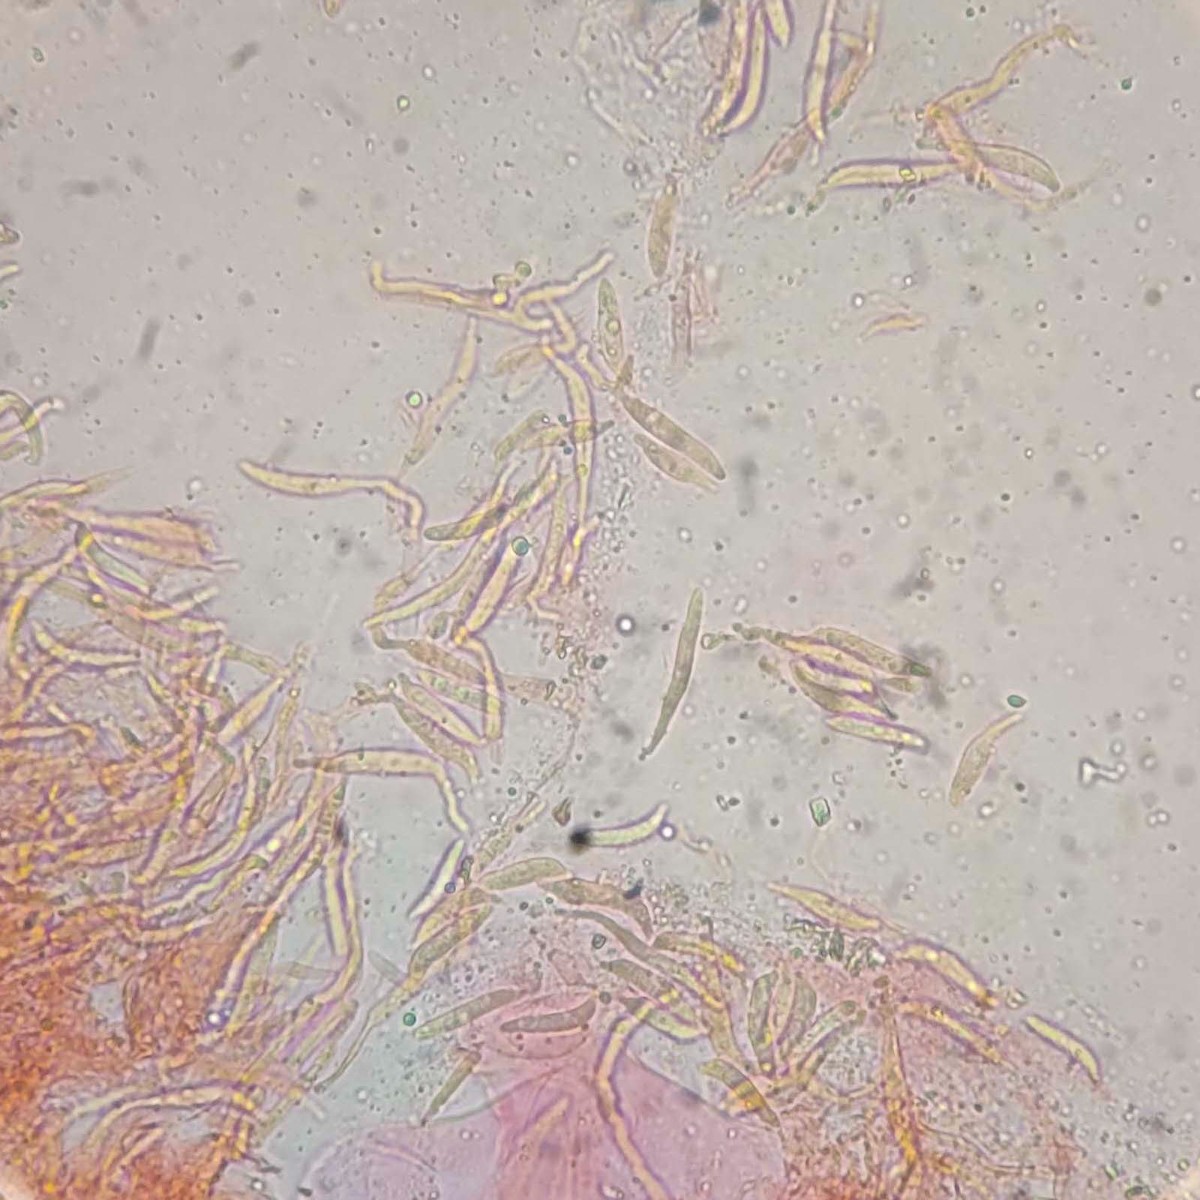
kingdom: Fungi
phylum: Basidiomycota
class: Exobasidiomycetes
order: Entylomatales
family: Entylomataceae
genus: Entyloma
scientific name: Entyloma ficariae
